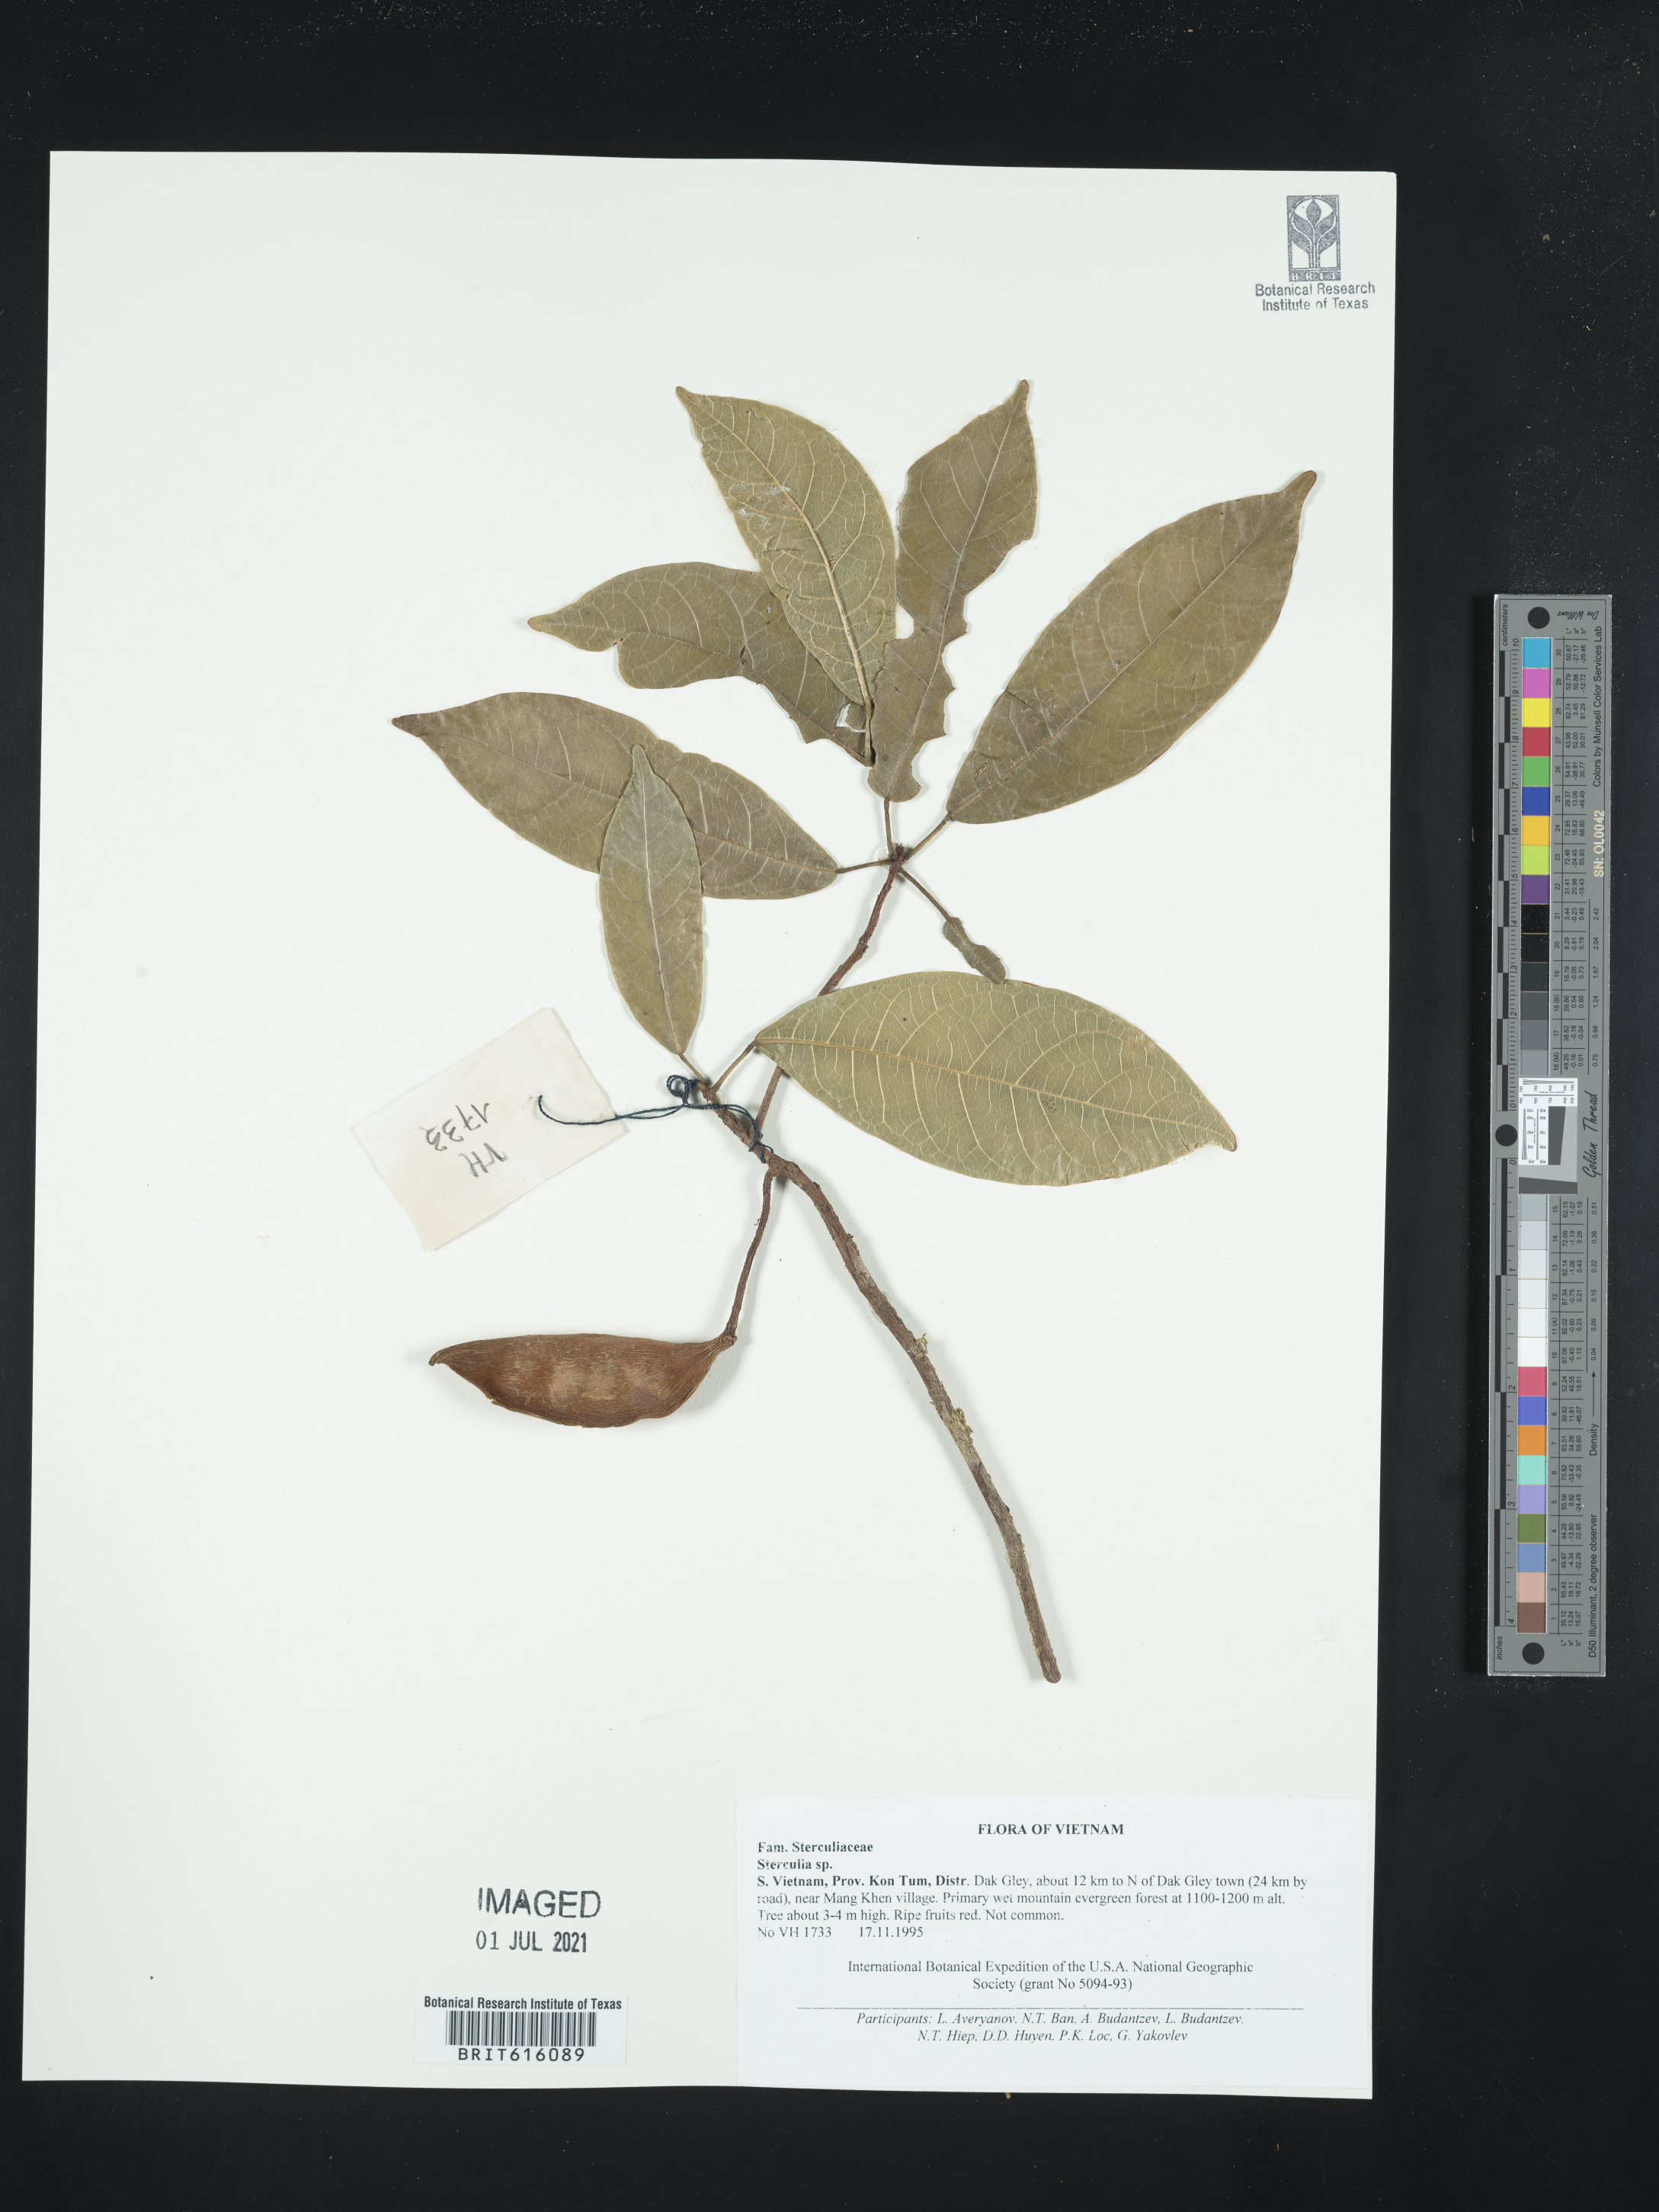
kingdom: Plantae
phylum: Tracheophyta
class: Magnoliopsida
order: Malvales
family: Malvaceae
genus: Sterculia
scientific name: Sterculia
